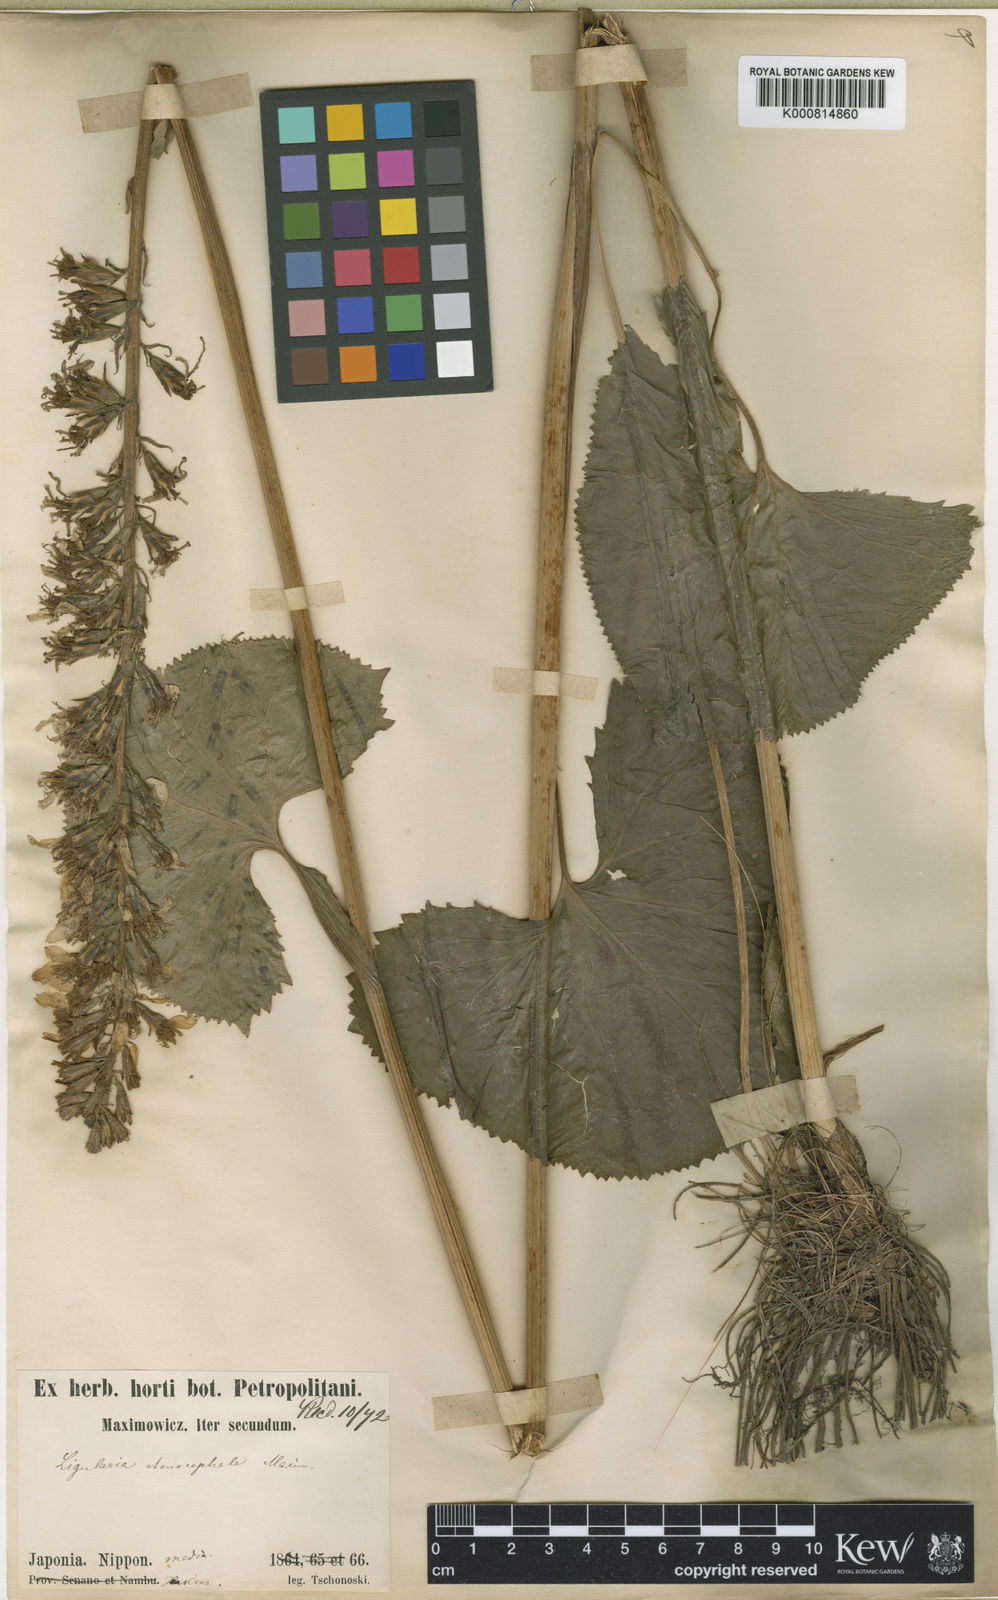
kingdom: Plantae
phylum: Tracheophyta
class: Magnoliopsida
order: Asterales
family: Asteraceae
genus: Ligularia
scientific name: Ligularia
